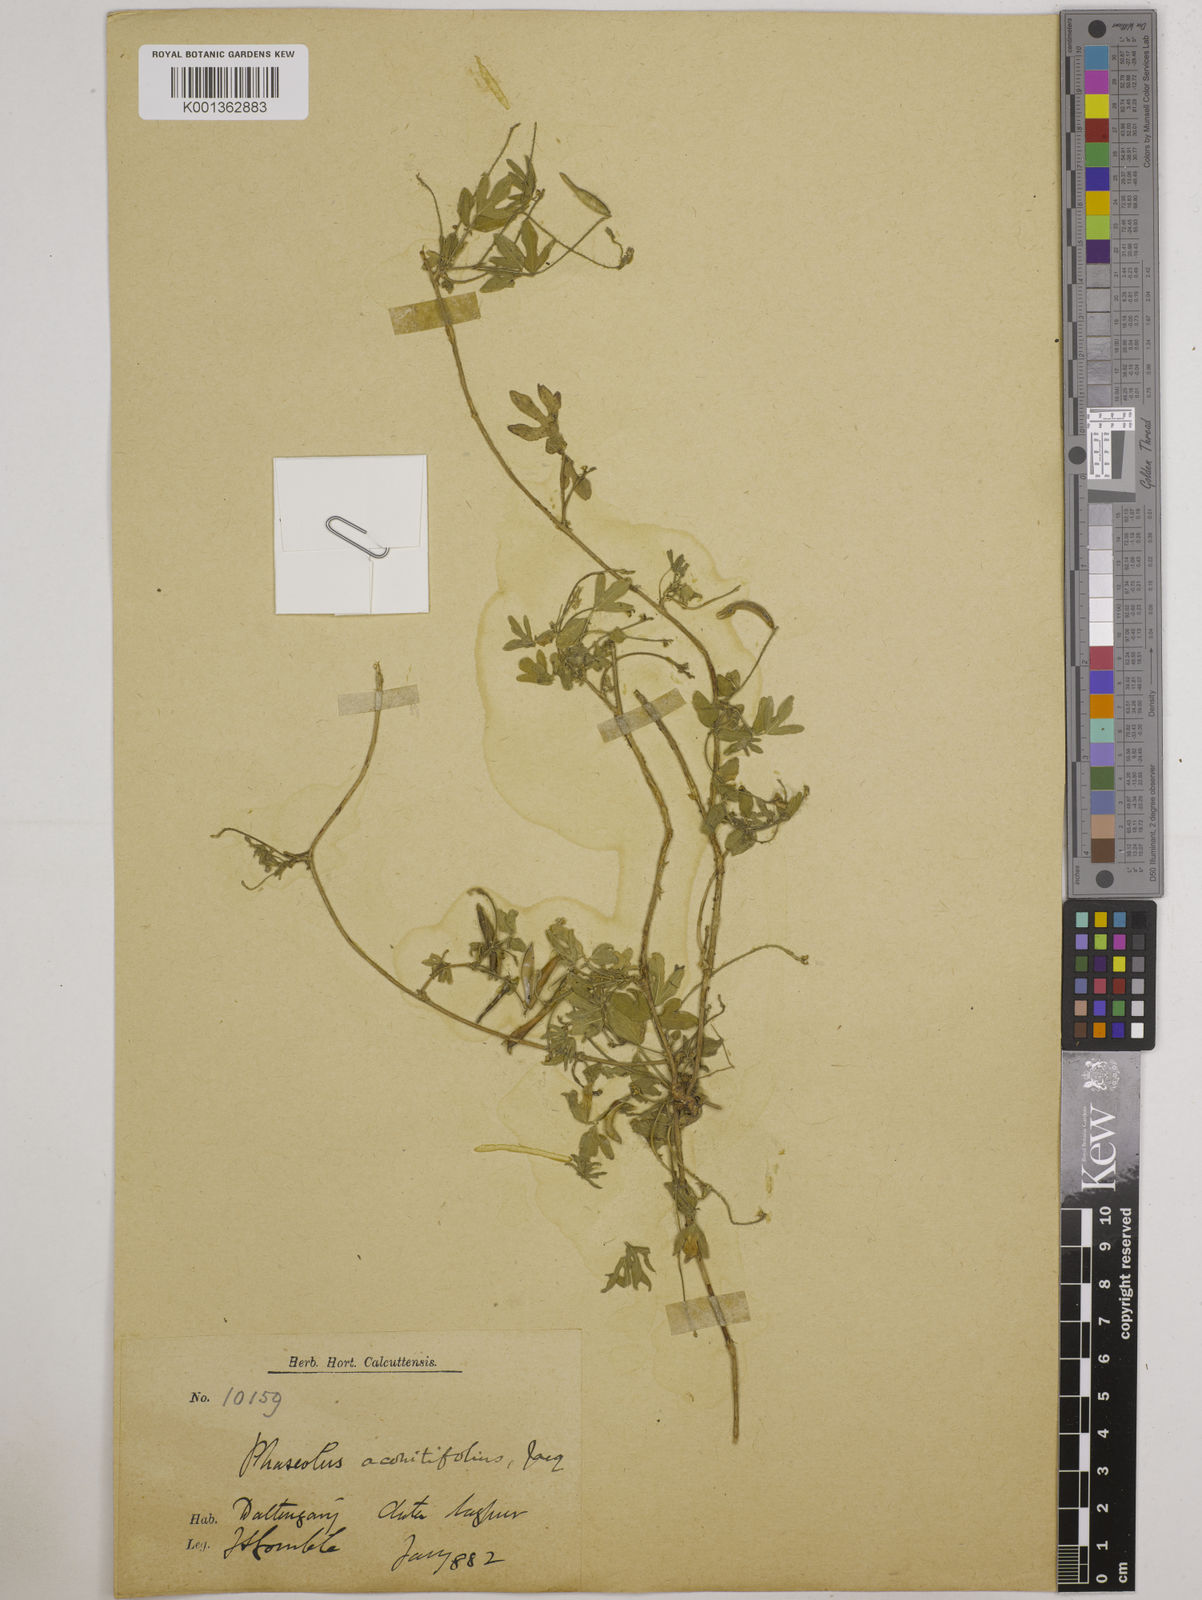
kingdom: Plantae
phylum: Tracheophyta
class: Magnoliopsida
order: Fabales
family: Fabaceae
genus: Vigna
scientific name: Vigna aconitifolia
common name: Dew bean
